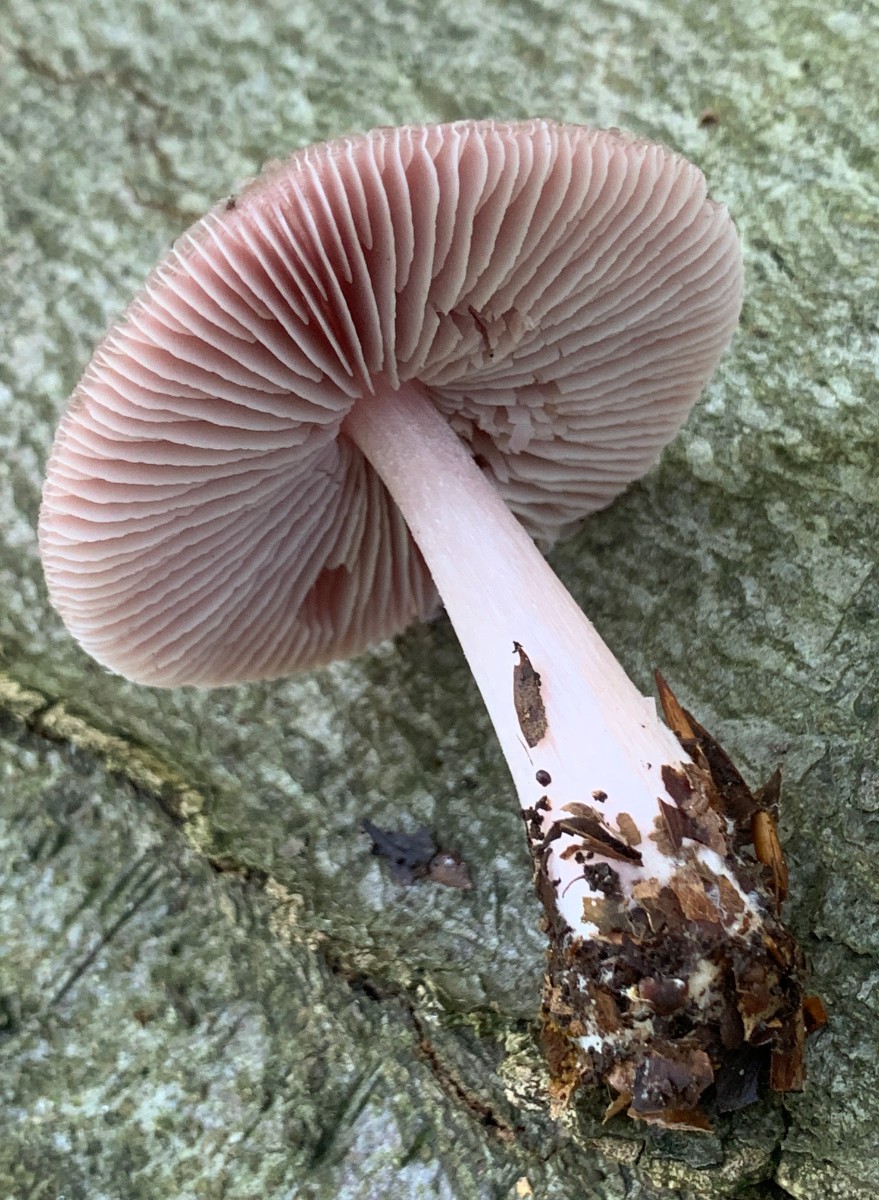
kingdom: Fungi
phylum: Basidiomycota
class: Agaricomycetes
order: Agaricales
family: Mycenaceae
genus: Mycena
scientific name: Mycena rosea
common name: rosa huesvamp
